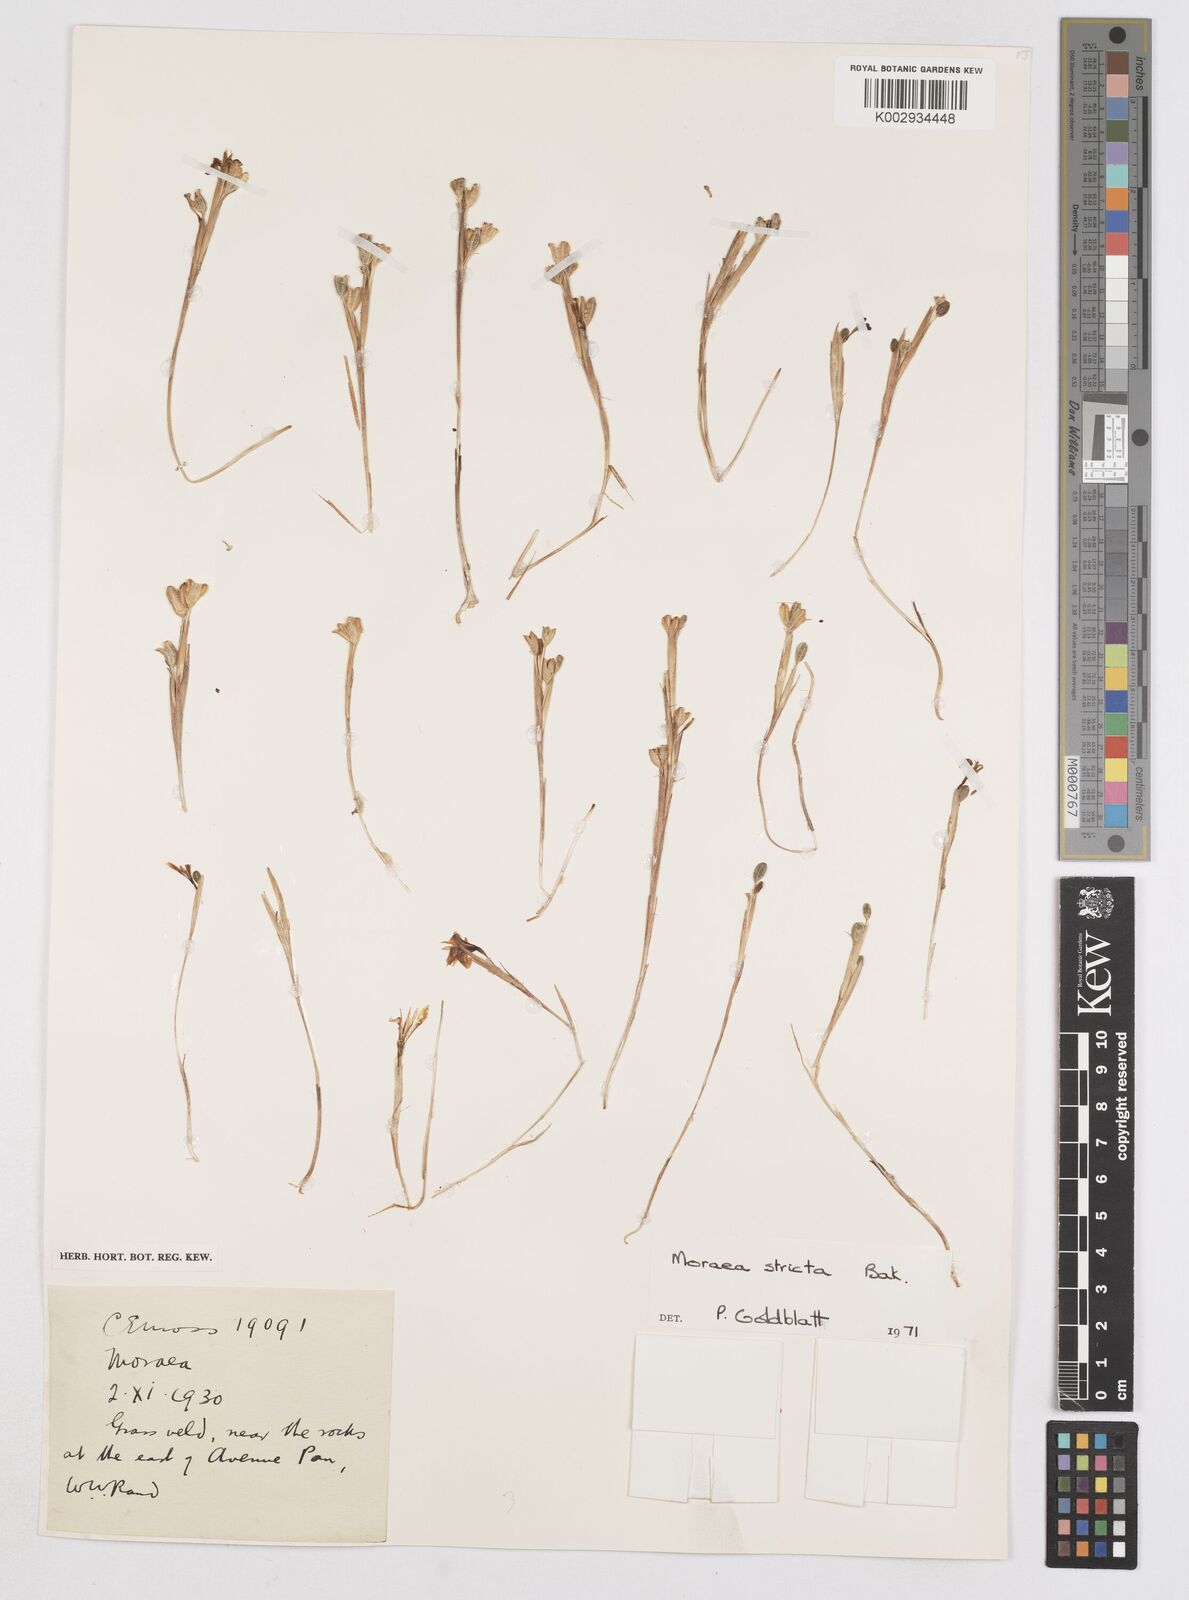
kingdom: Plantae
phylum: Tracheophyta
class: Liliopsida
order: Asparagales
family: Iridaceae
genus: Moraea
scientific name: Moraea stricta
